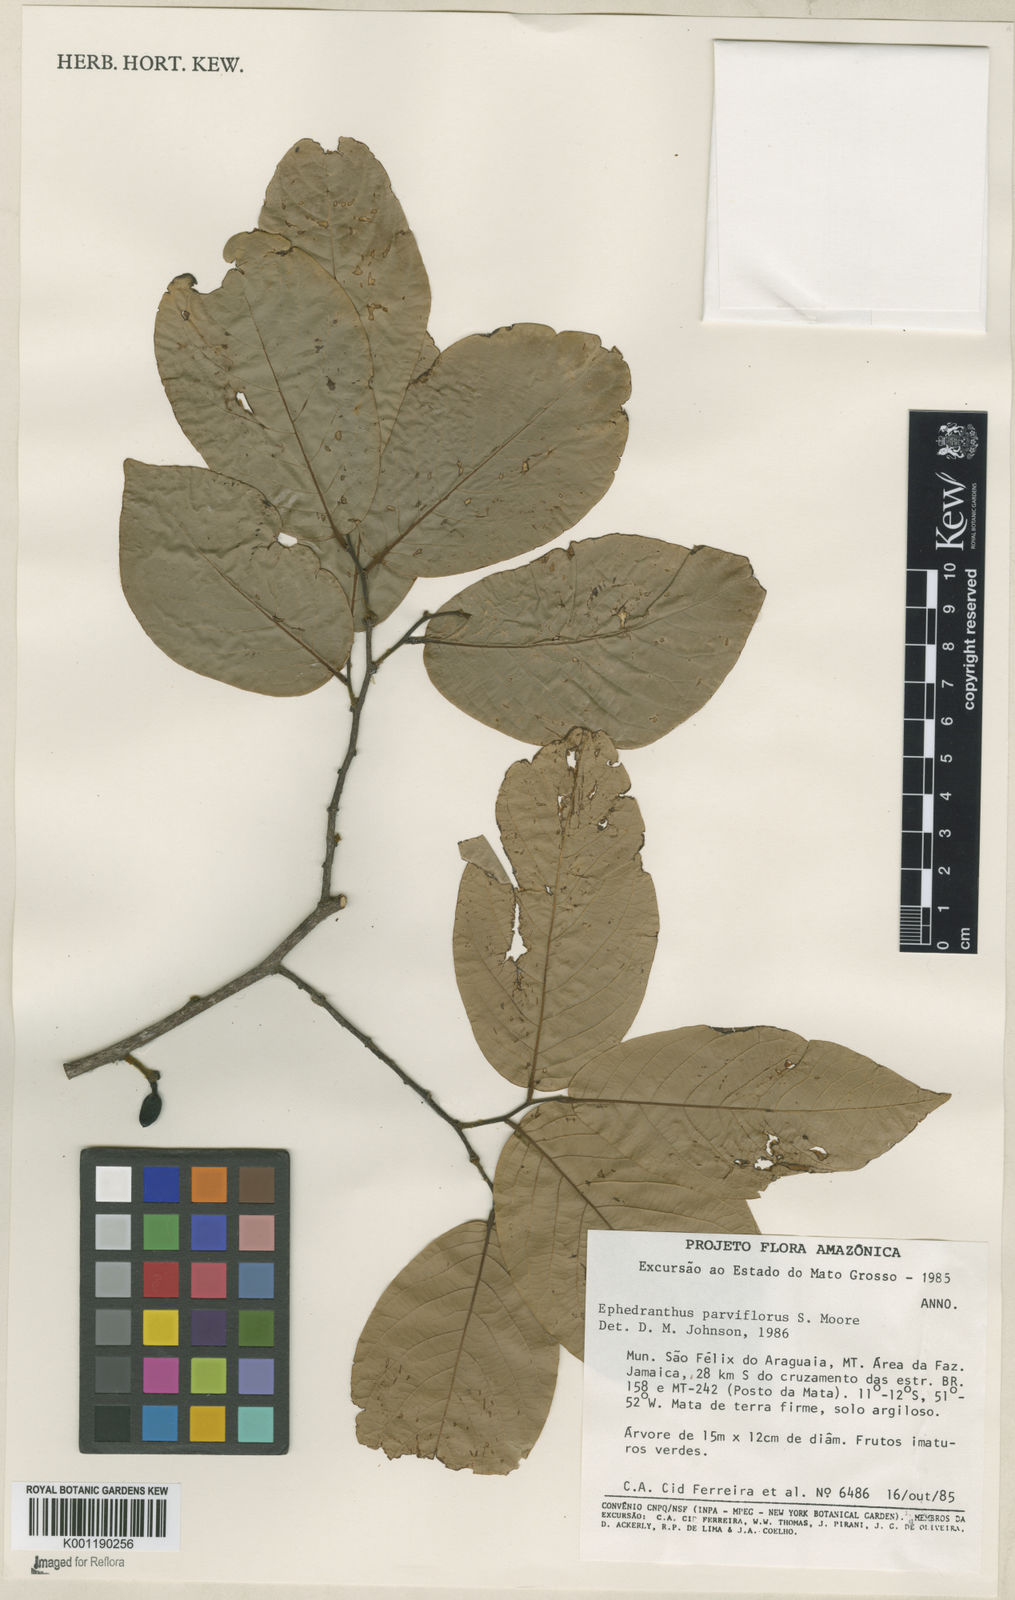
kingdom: Plantae
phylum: Tracheophyta
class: Magnoliopsida
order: Magnoliales
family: Annonaceae
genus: Ephedranthus
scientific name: Ephedranthus parviflorus
